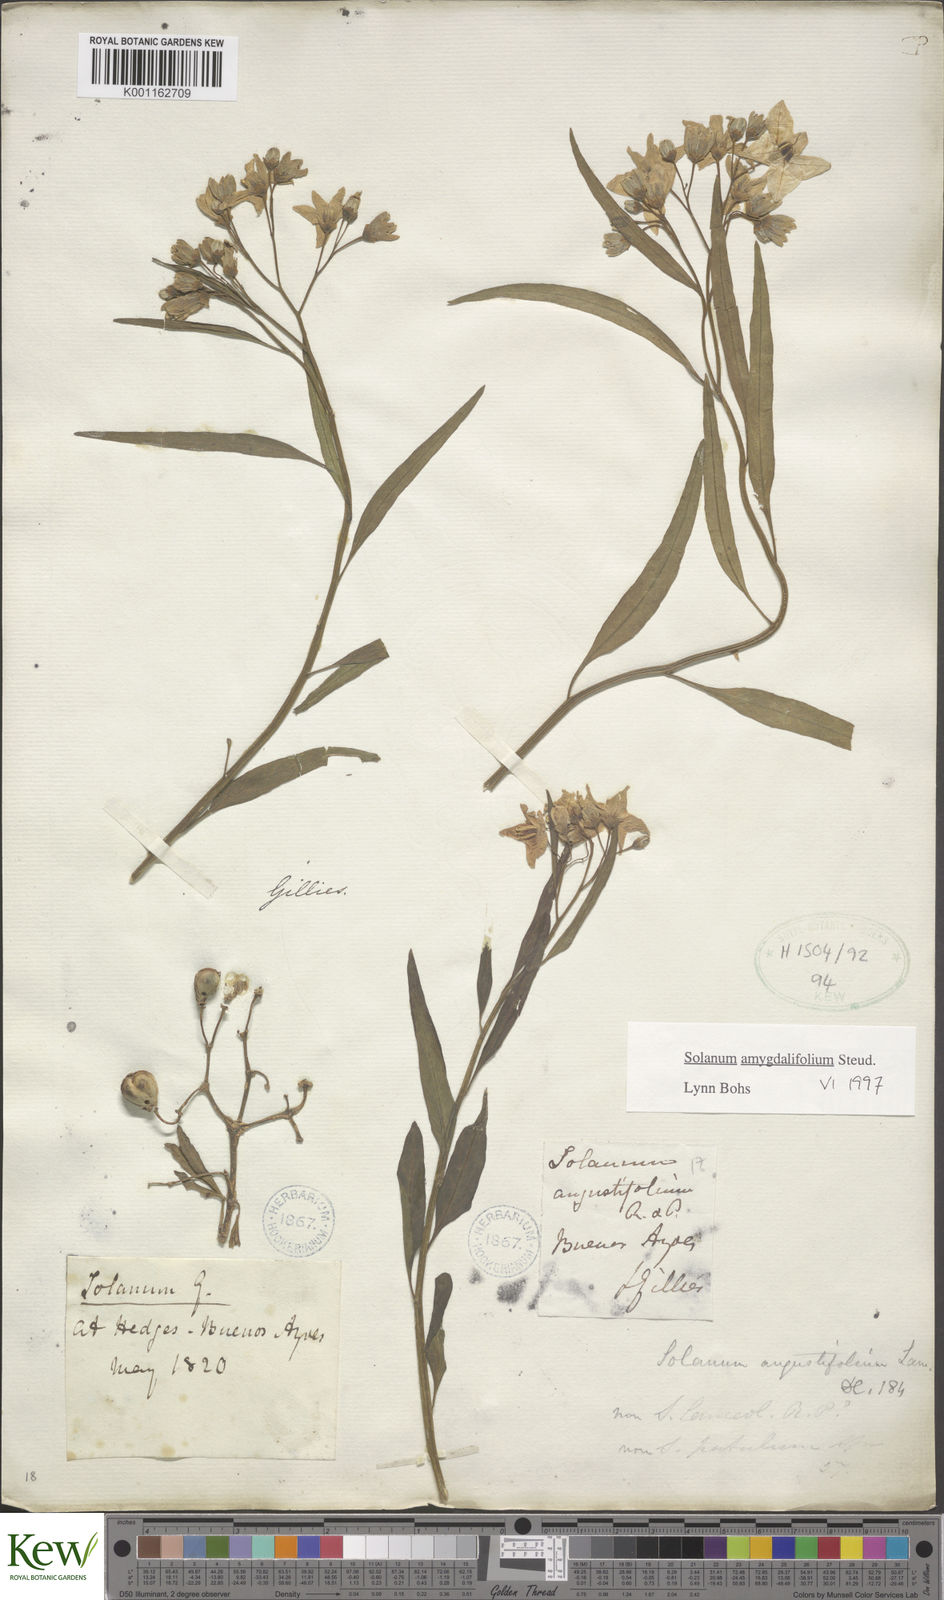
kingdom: Plantae
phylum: Tracheophyta
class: Magnoliopsida
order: Solanales
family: Solanaceae
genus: Solanum
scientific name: Solanum amygdalifolium
